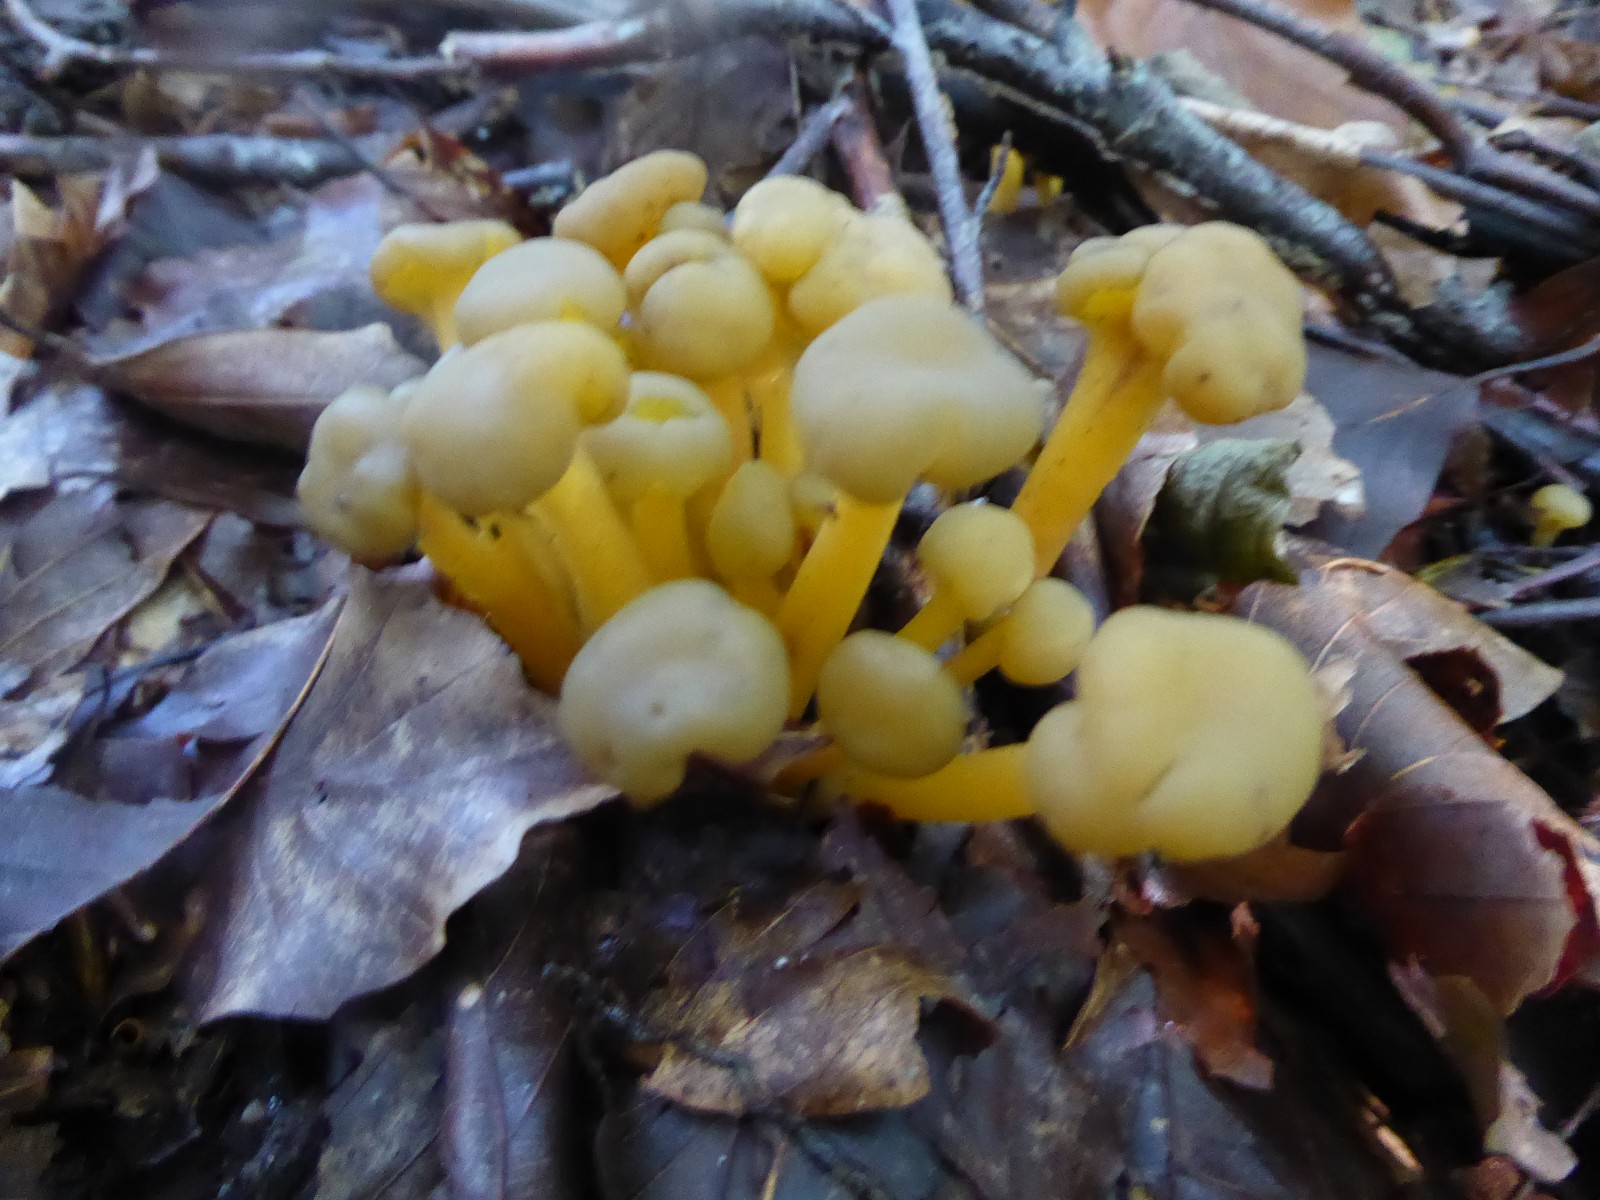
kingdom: Fungi
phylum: Ascomycota
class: Leotiomycetes
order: Leotiales
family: Leotiaceae
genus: Leotia
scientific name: Leotia lubrica
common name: ravsvamp
